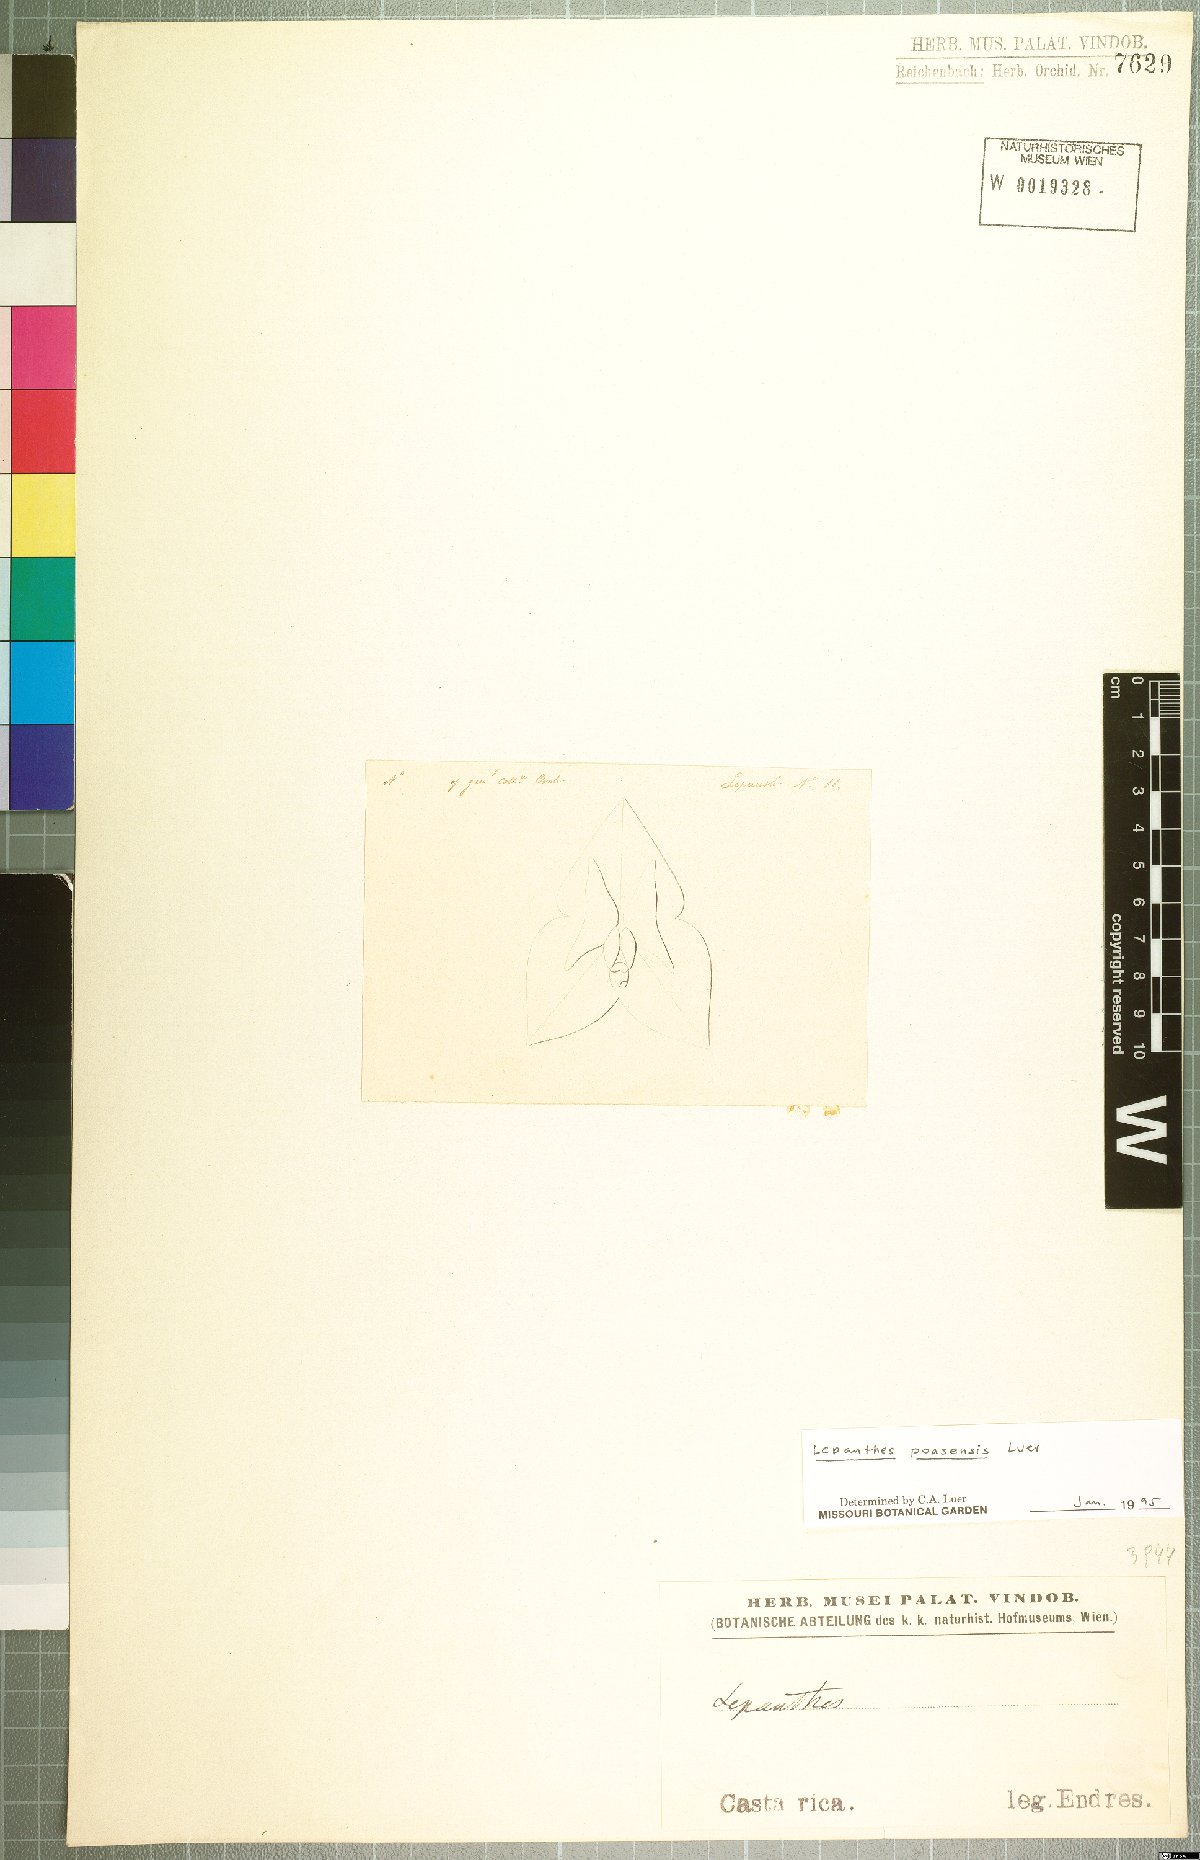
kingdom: Plantae
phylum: Tracheophyta
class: Liliopsida
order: Asparagales
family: Orchidaceae
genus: Lepanthes
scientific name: Lepanthes poasensis
